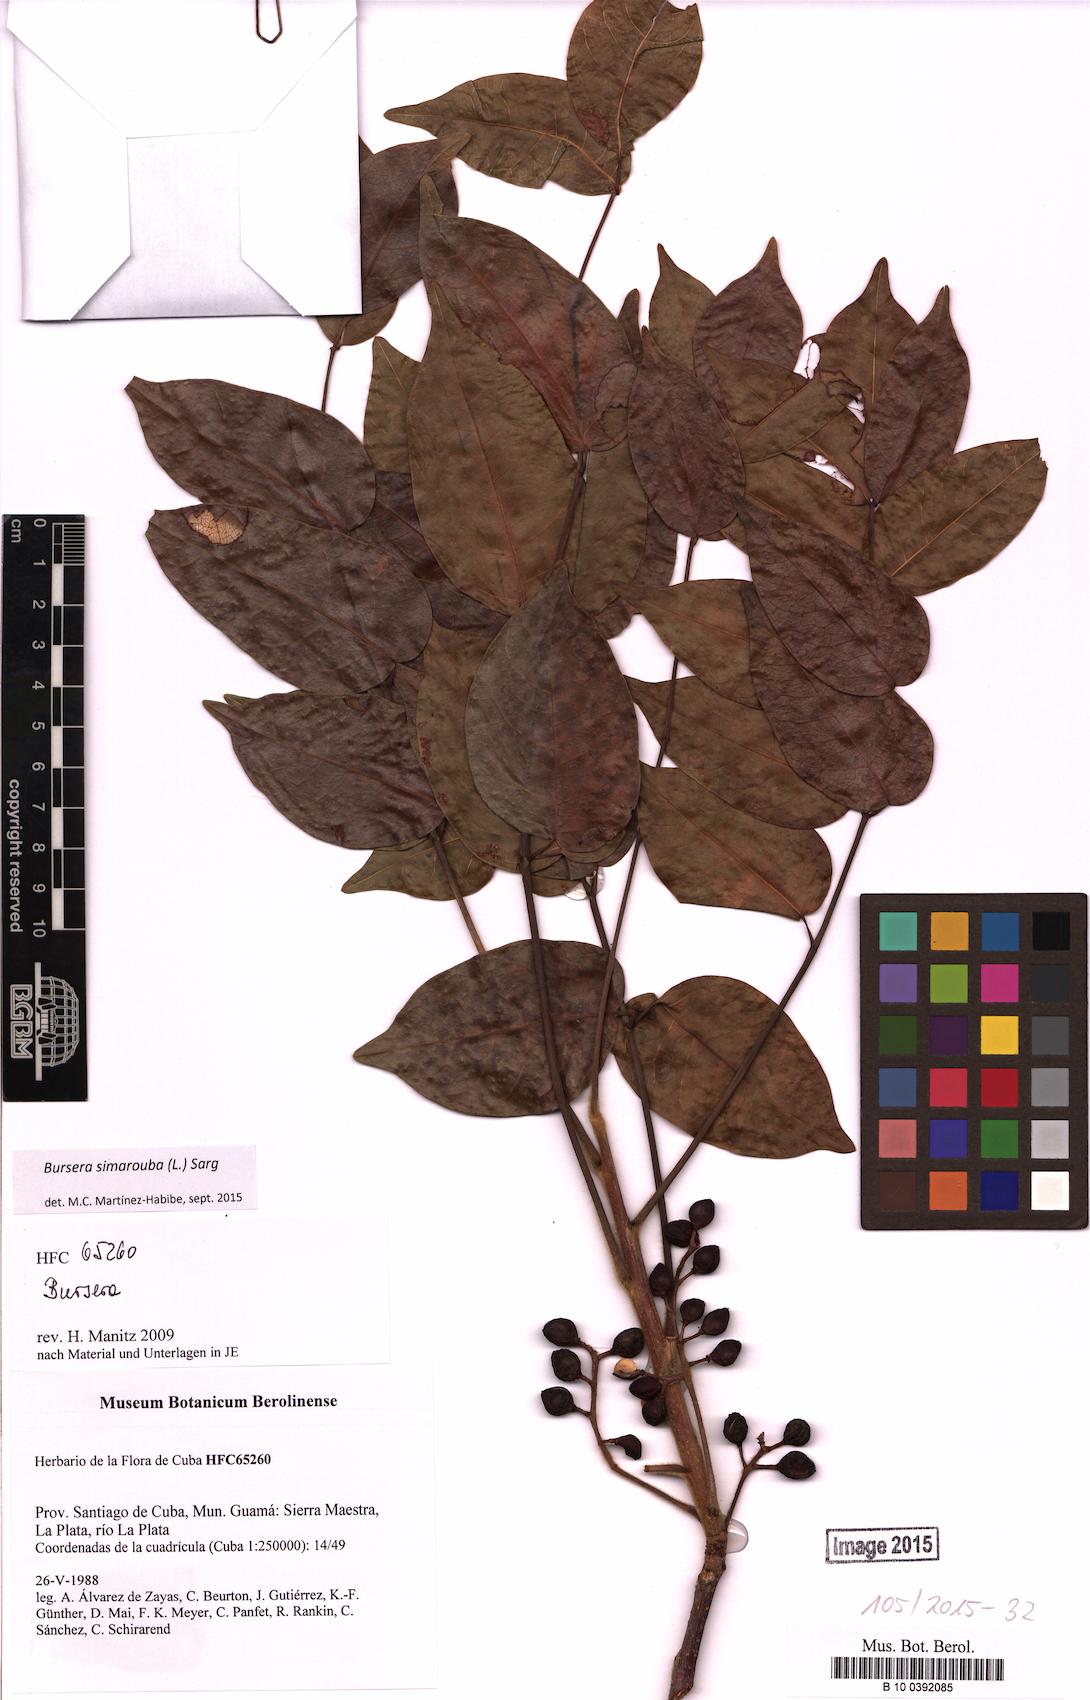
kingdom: Plantae
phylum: Tracheophyta
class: Magnoliopsida
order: Sapindales
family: Burseraceae
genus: Bursera
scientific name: Bursera simaruba
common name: Turpentine tree
